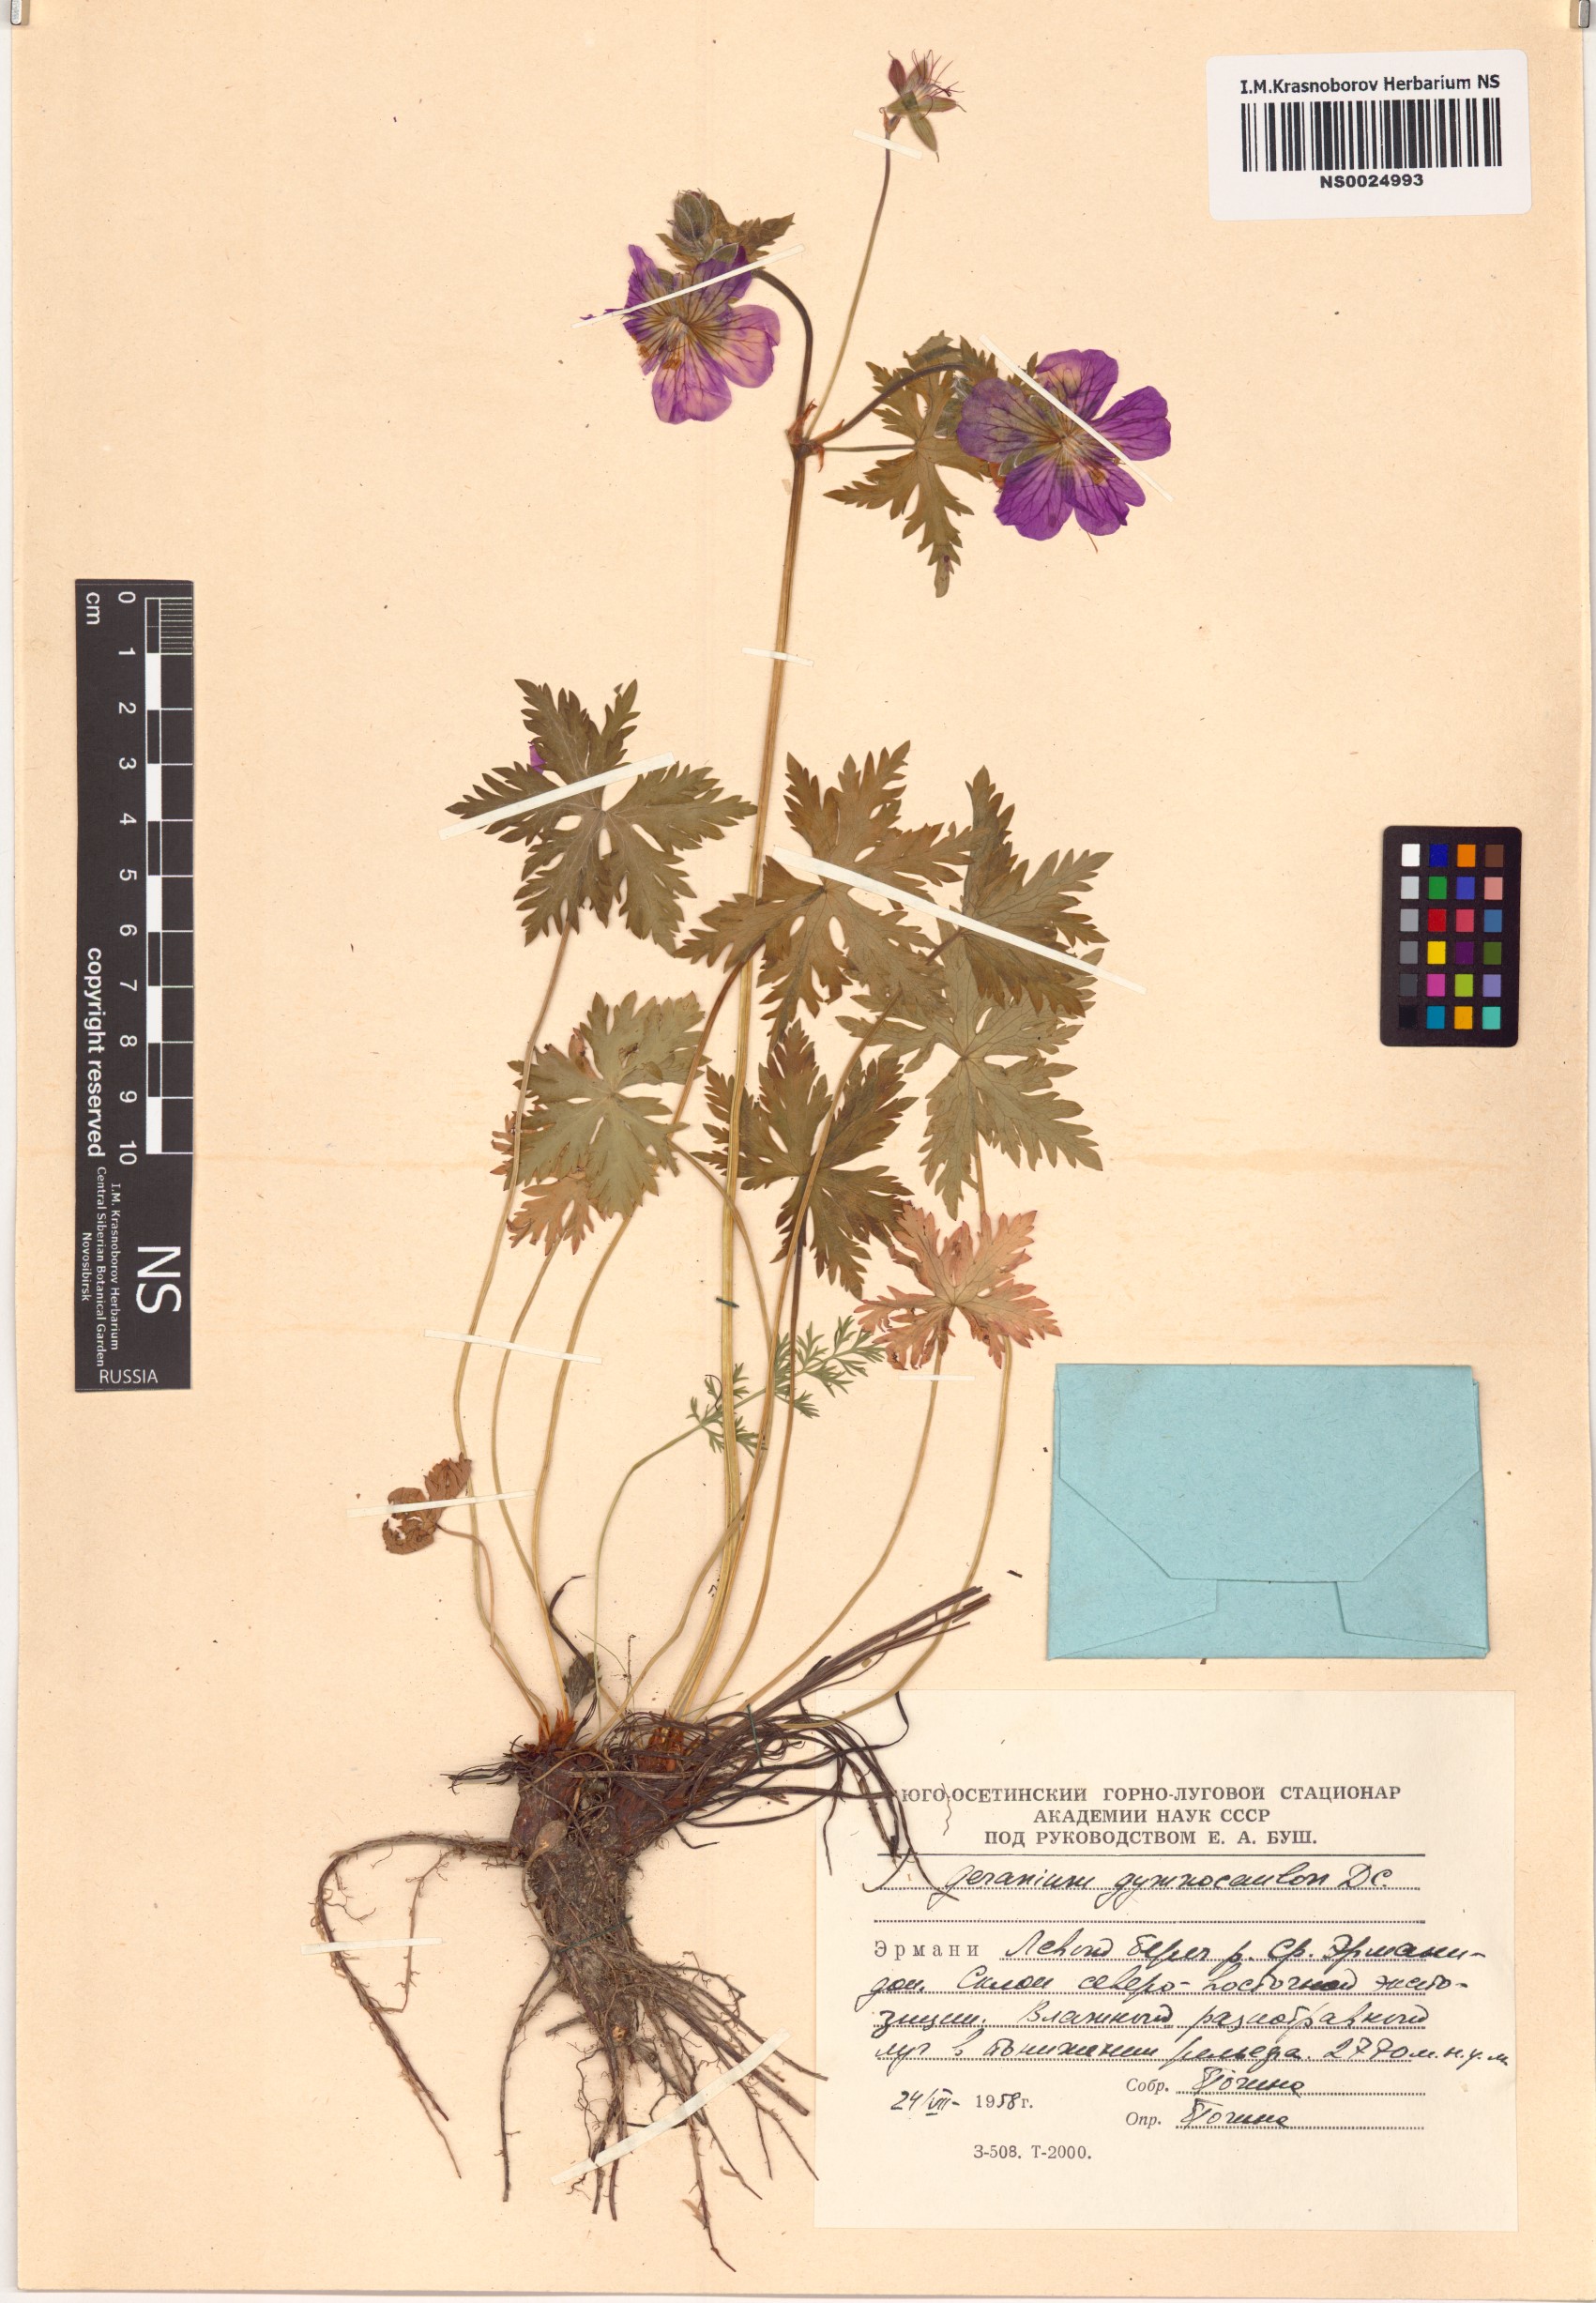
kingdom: Plantae
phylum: Tracheophyta
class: Magnoliopsida
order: Geraniales
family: Geraniaceae
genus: Geranium
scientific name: Geranium gymnocaulon
